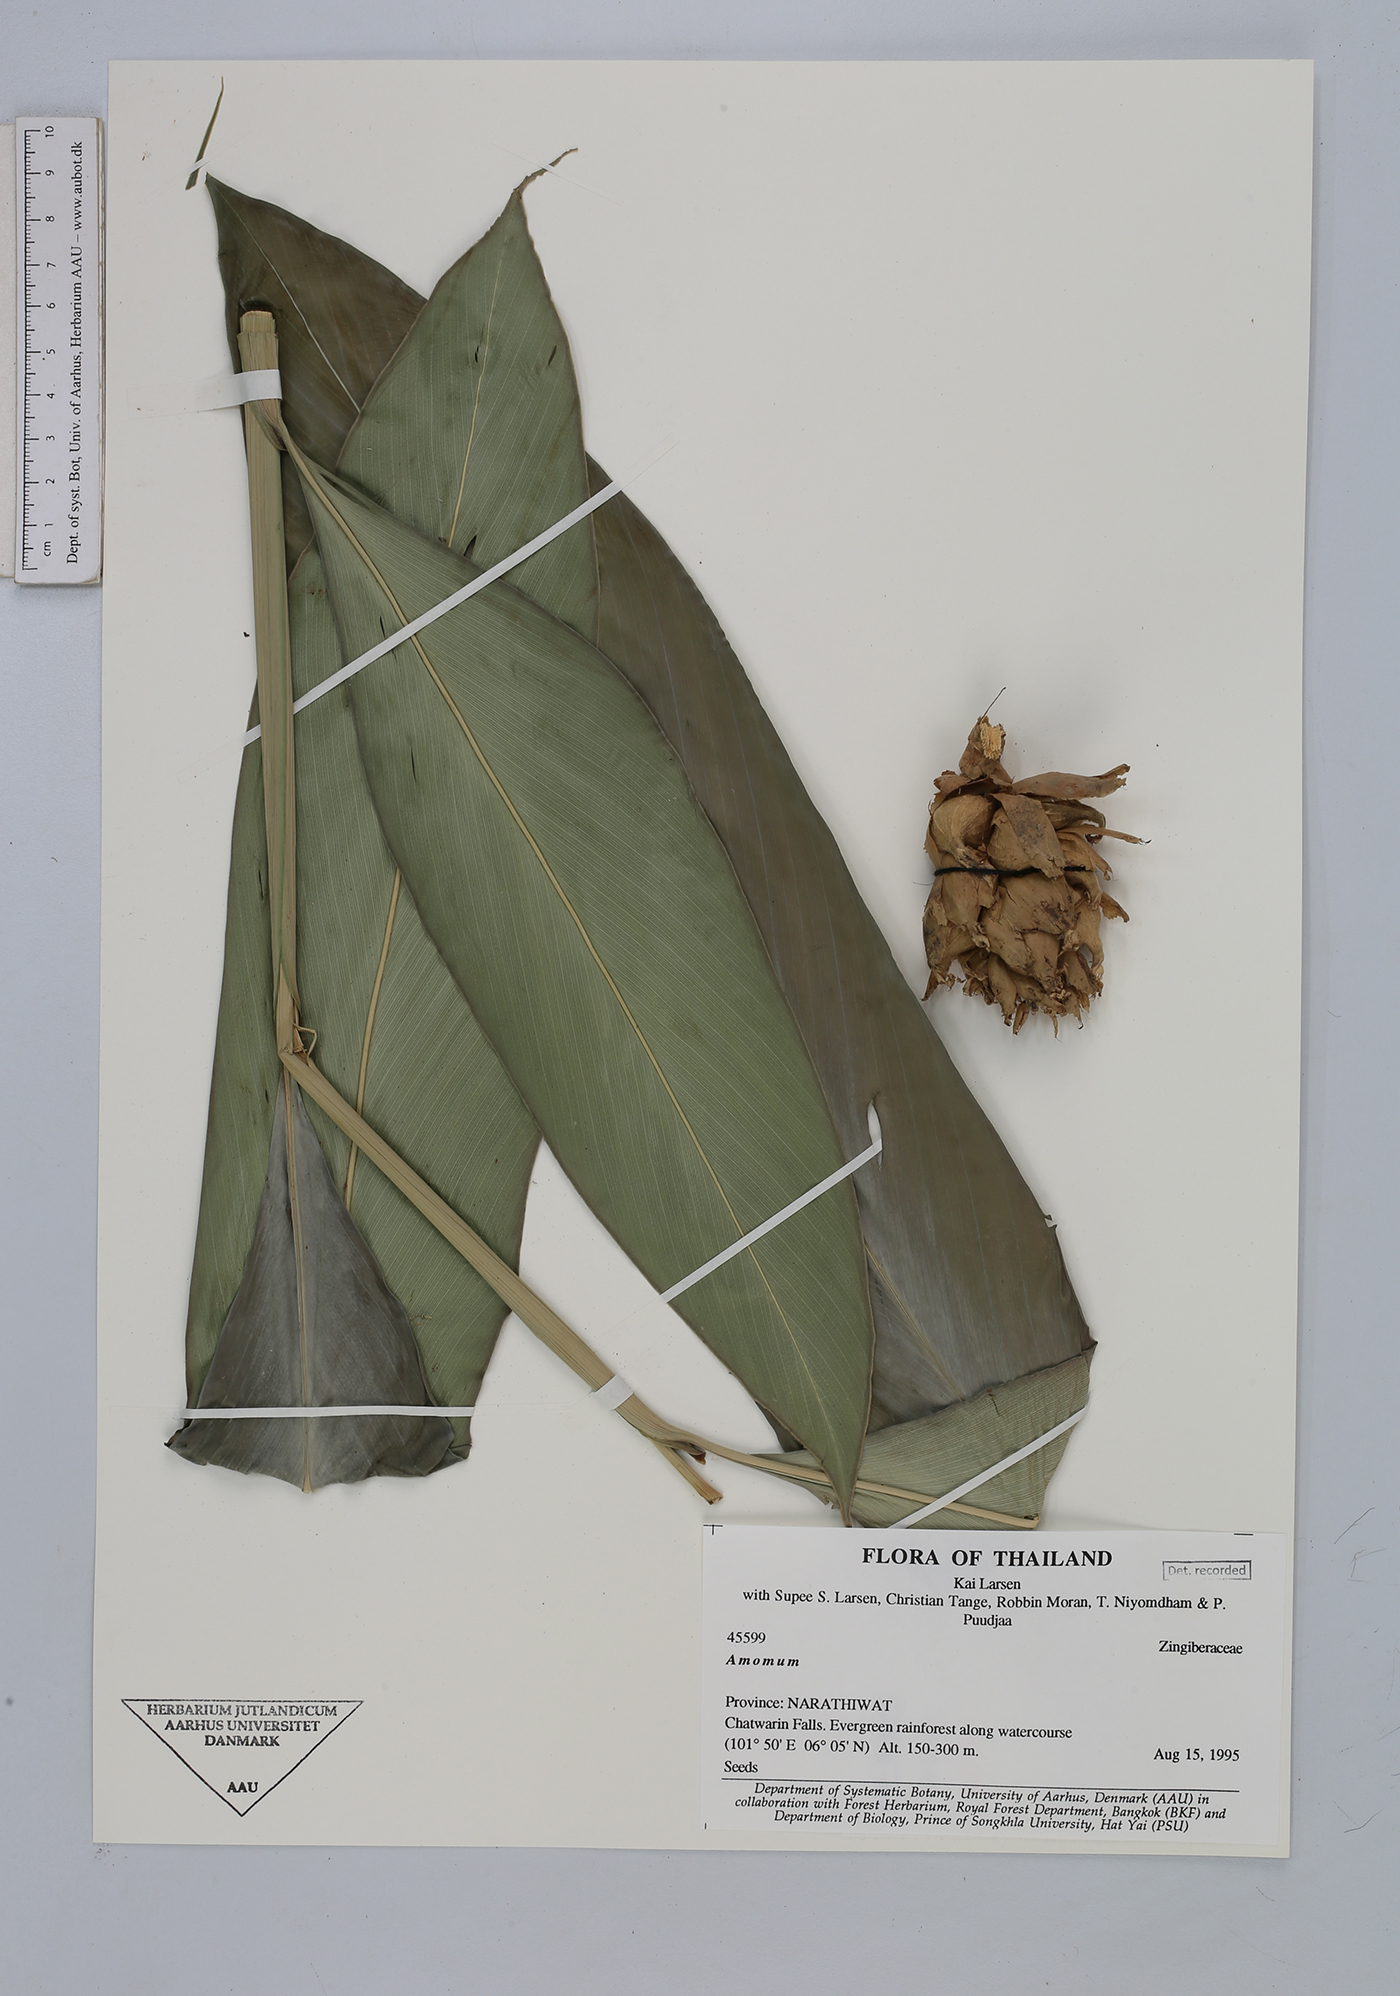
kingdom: Plantae
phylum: Tracheophyta
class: Liliopsida
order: Zingiberales
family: Zingiberaceae
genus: Amomum
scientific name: Amomum
